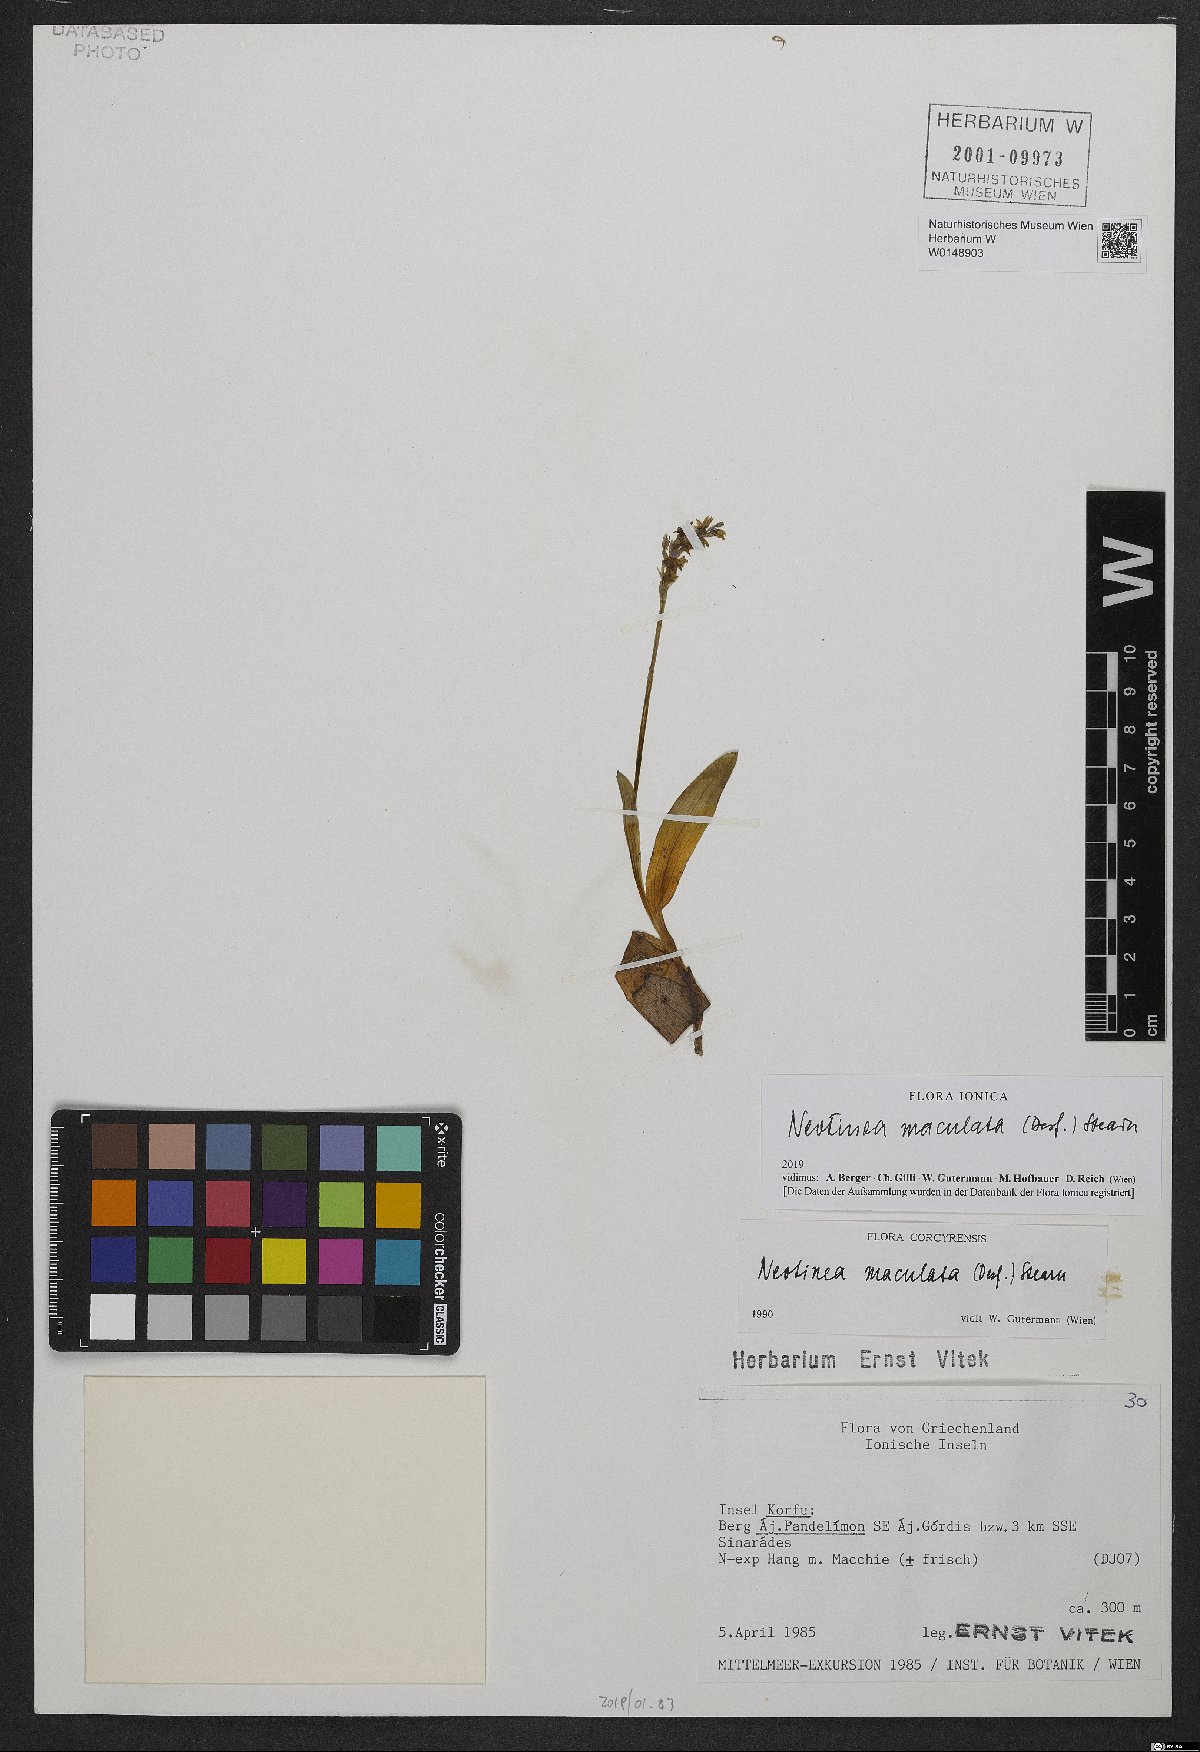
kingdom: Plantae
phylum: Tracheophyta
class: Liliopsida
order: Asparagales
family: Orchidaceae
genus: Neotinea
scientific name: Neotinea maculata
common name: Dense-flowered orchid
